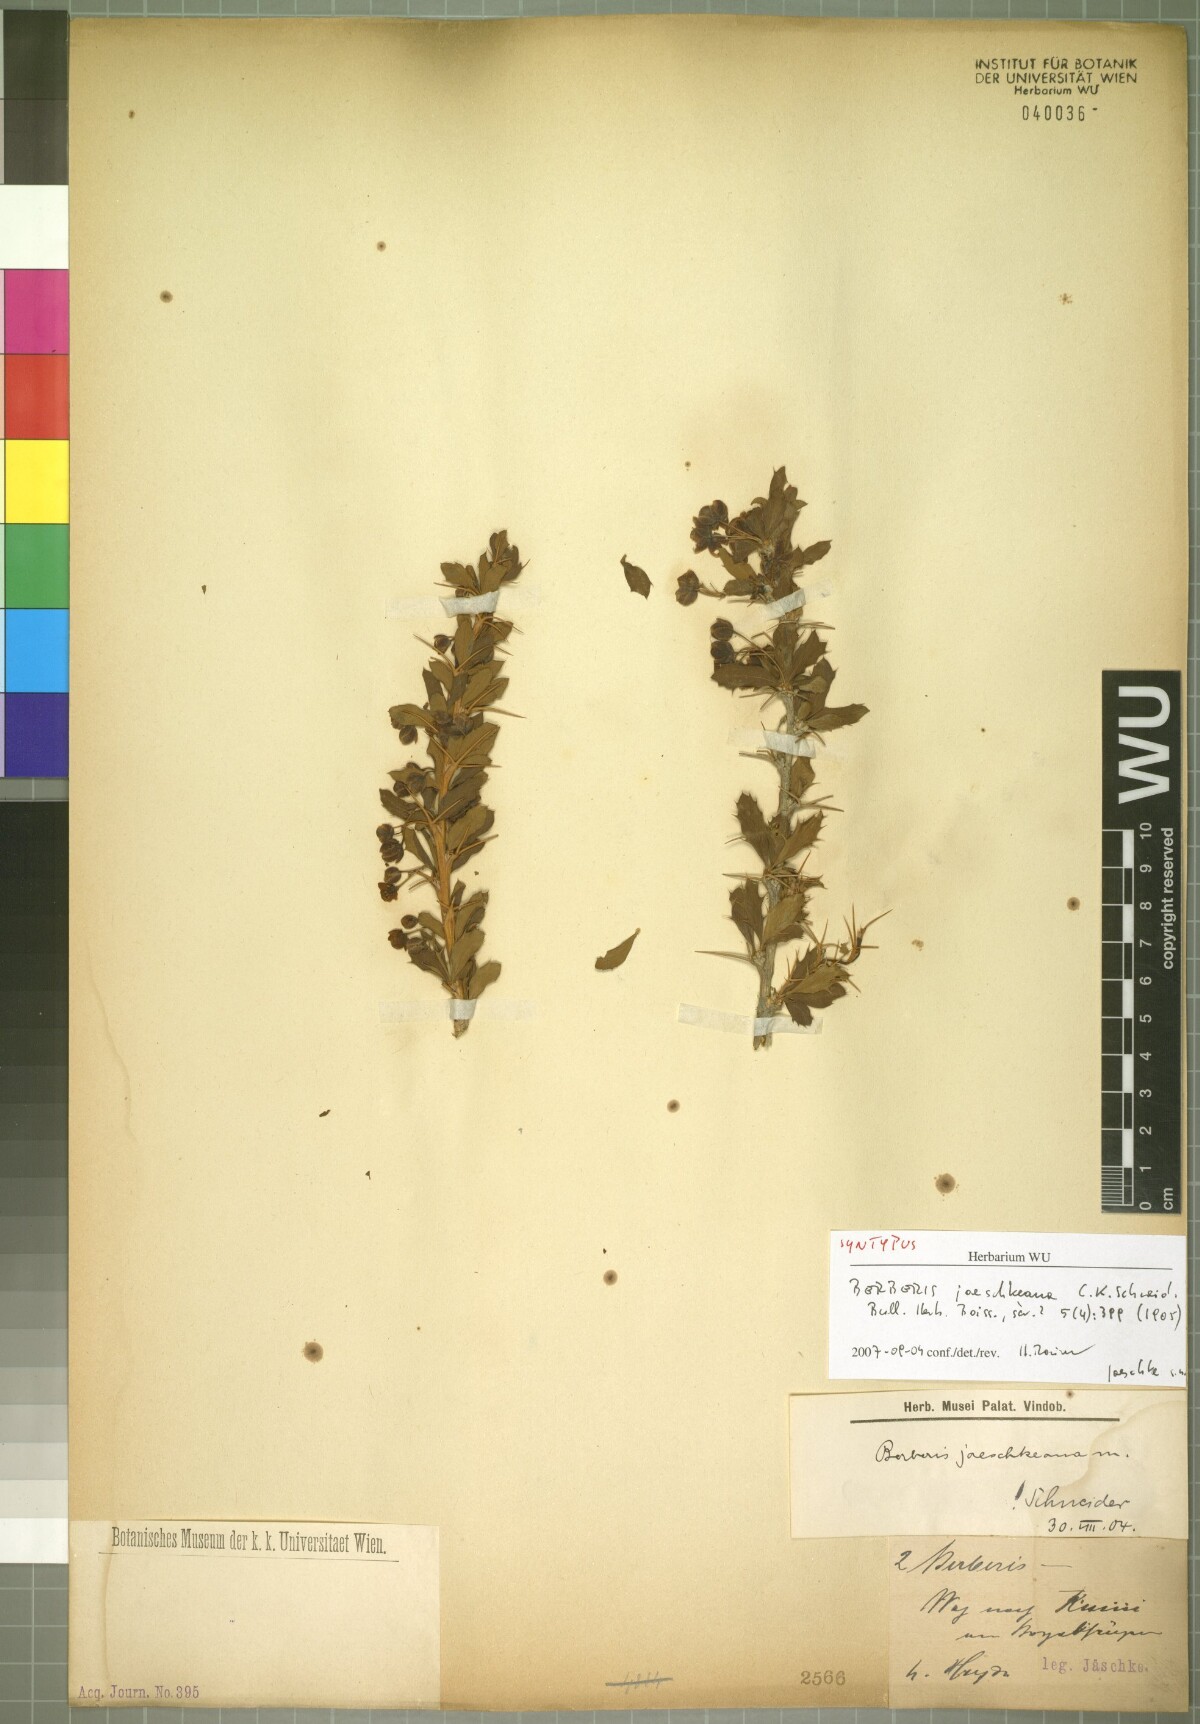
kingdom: Plantae
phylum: Tracheophyta
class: Magnoliopsida
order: Ranunculales
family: Berberidaceae
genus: Berberis
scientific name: Berberis jaeschkeana
